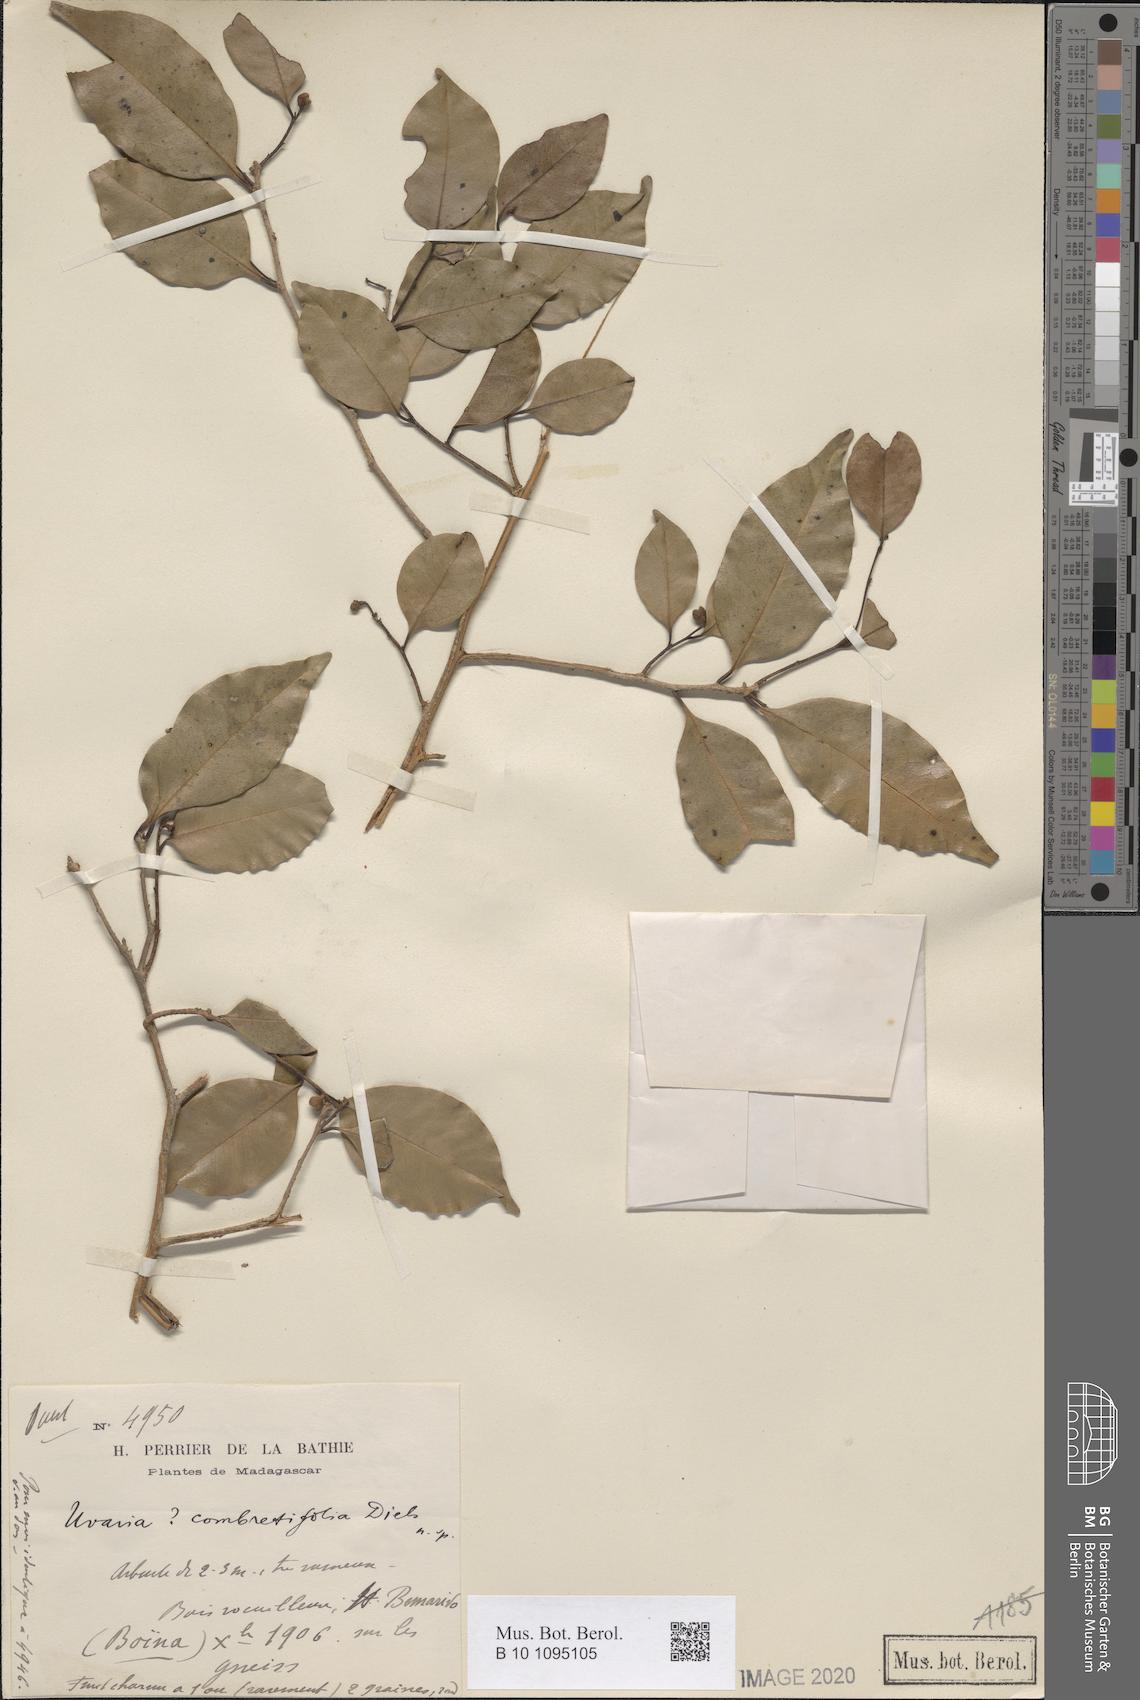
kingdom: Plantae
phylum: Tracheophyta
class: Magnoliopsida
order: Magnoliales
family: Annonaceae
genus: Uvaria
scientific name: Uvaria combretifolia
